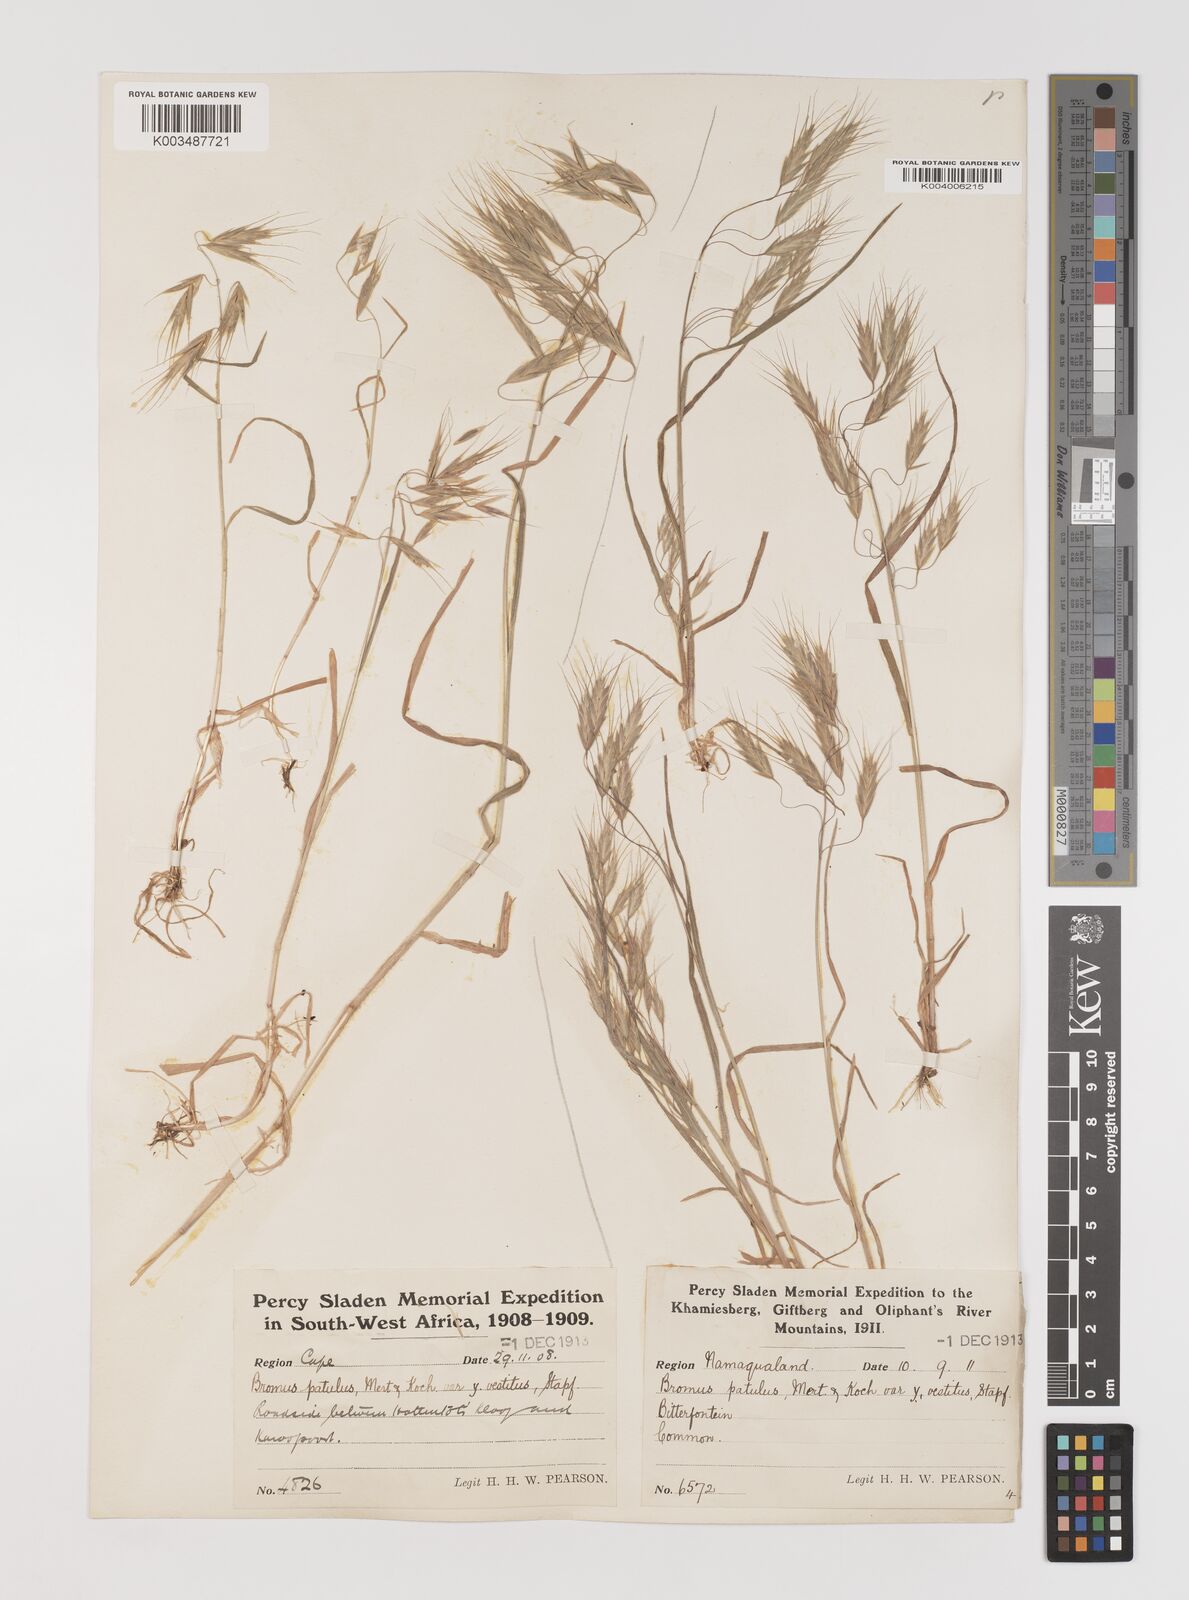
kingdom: Plantae
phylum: Tracheophyta
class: Liliopsida
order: Poales
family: Poaceae
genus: Bromus
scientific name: Bromus pectinatus
